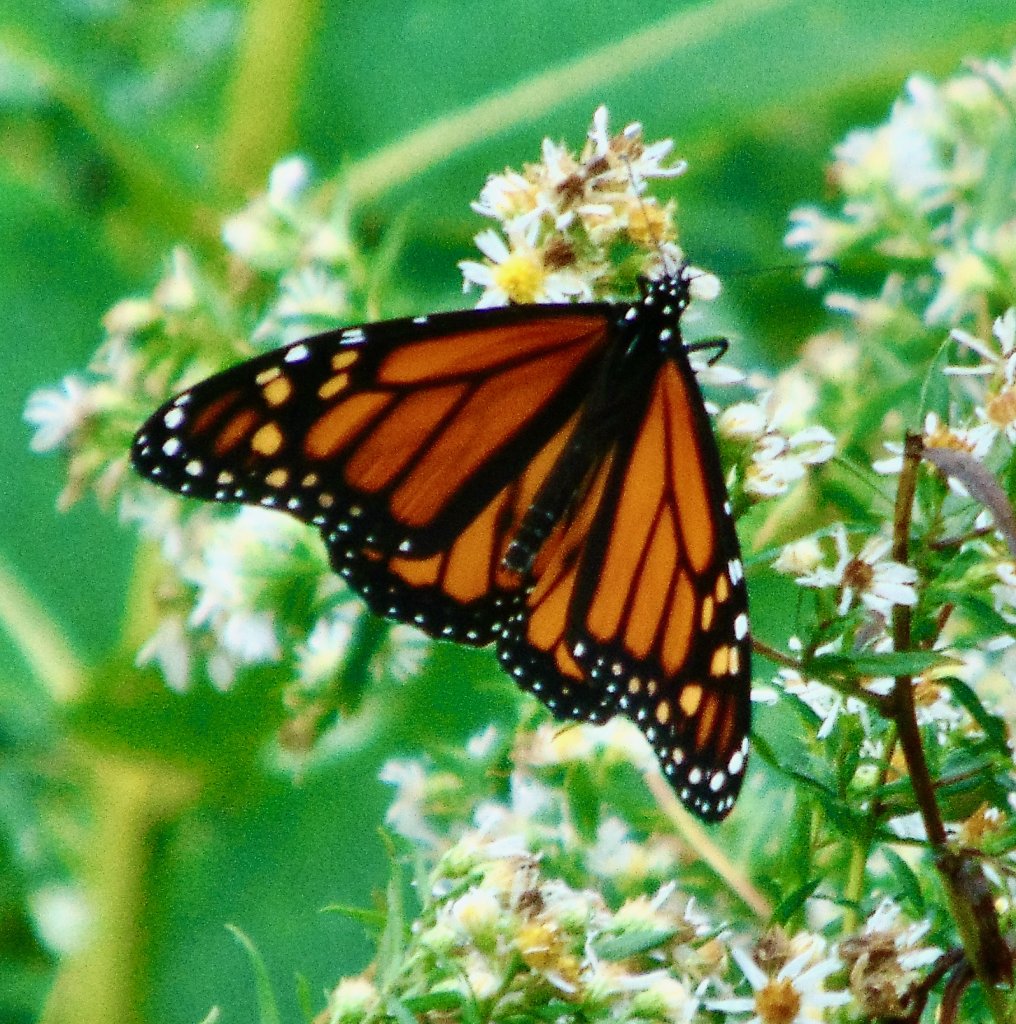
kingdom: Animalia
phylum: Arthropoda
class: Insecta
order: Lepidoptera
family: Nymphalidae
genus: Danaus
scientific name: Danaus plexippus
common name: Monarch
